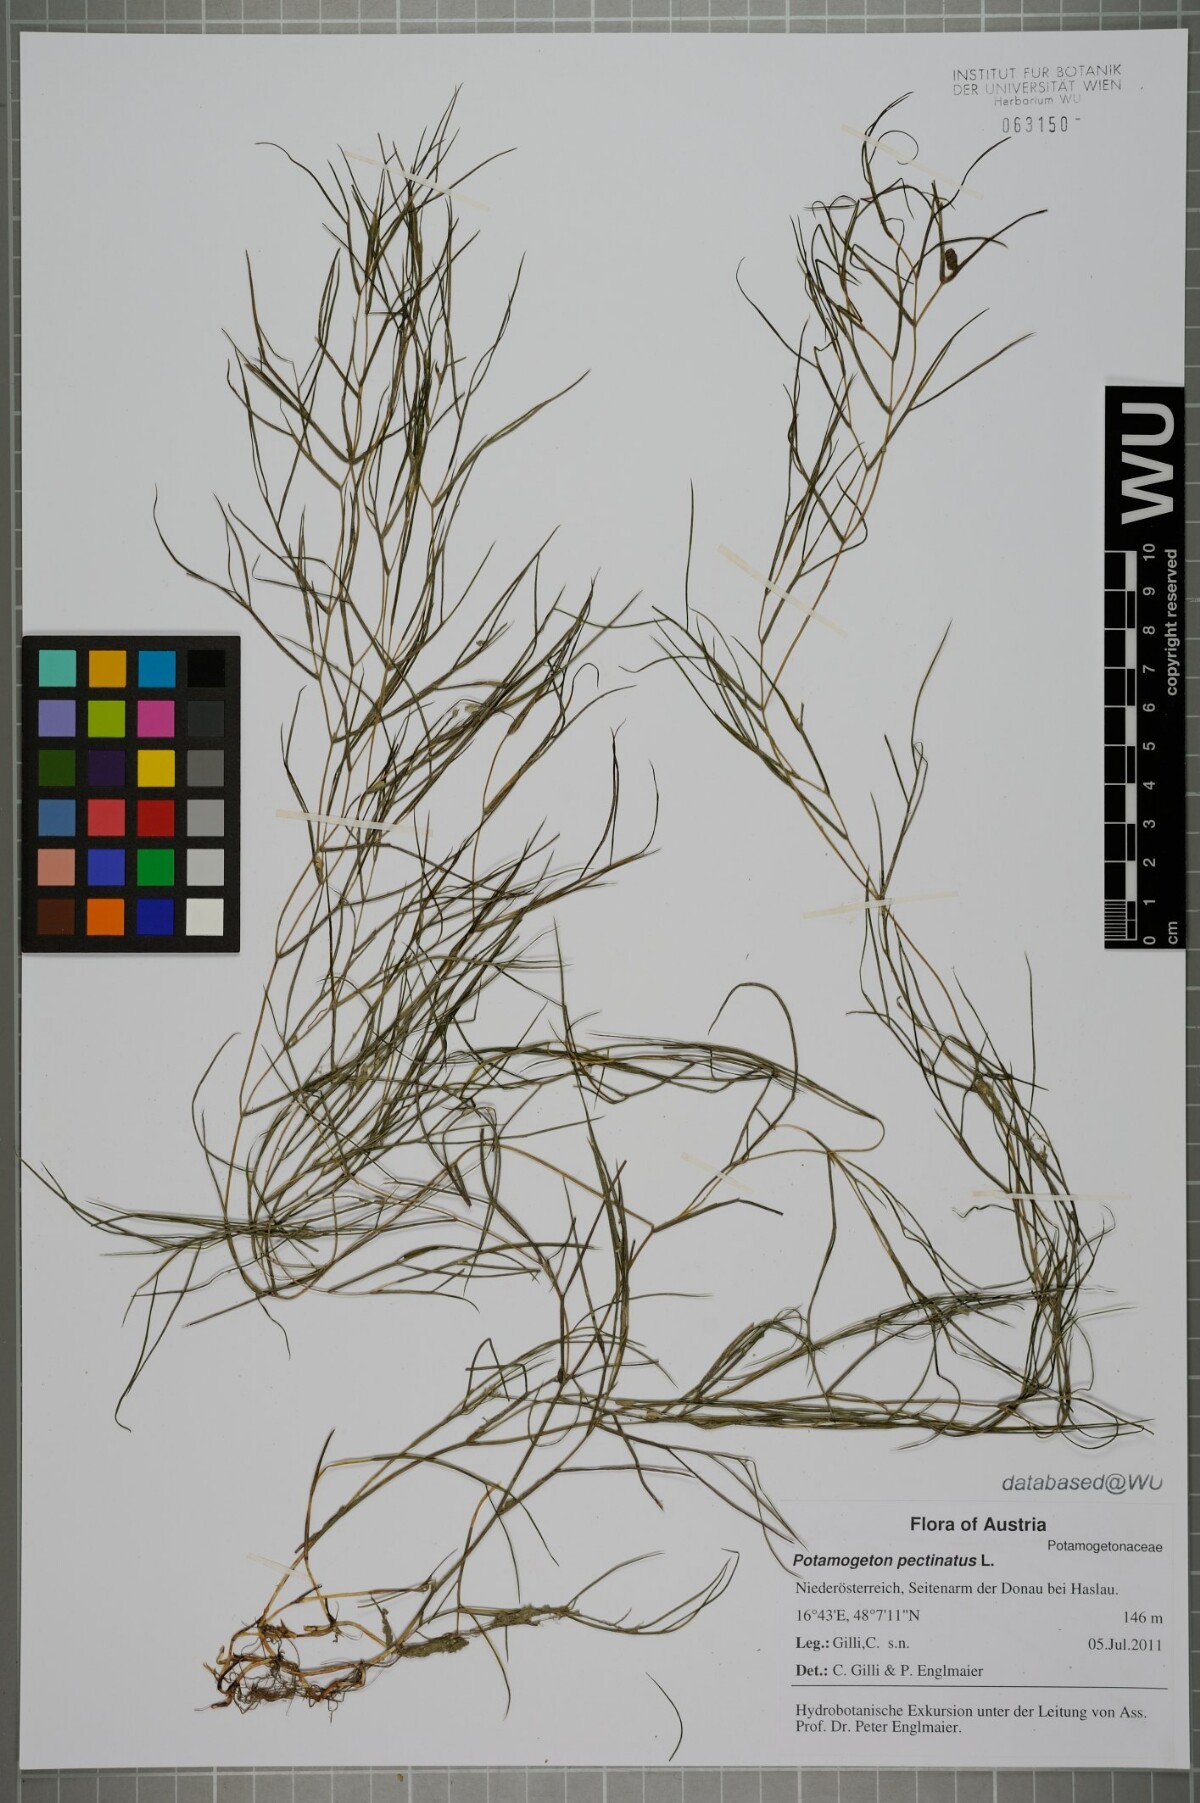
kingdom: Plantae
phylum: Tracheophyta
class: Liliopsida
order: Alismatales
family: Potamogetonaceae
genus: Stuckenia
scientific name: Stuckenia pectinata
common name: Sago pondweed
